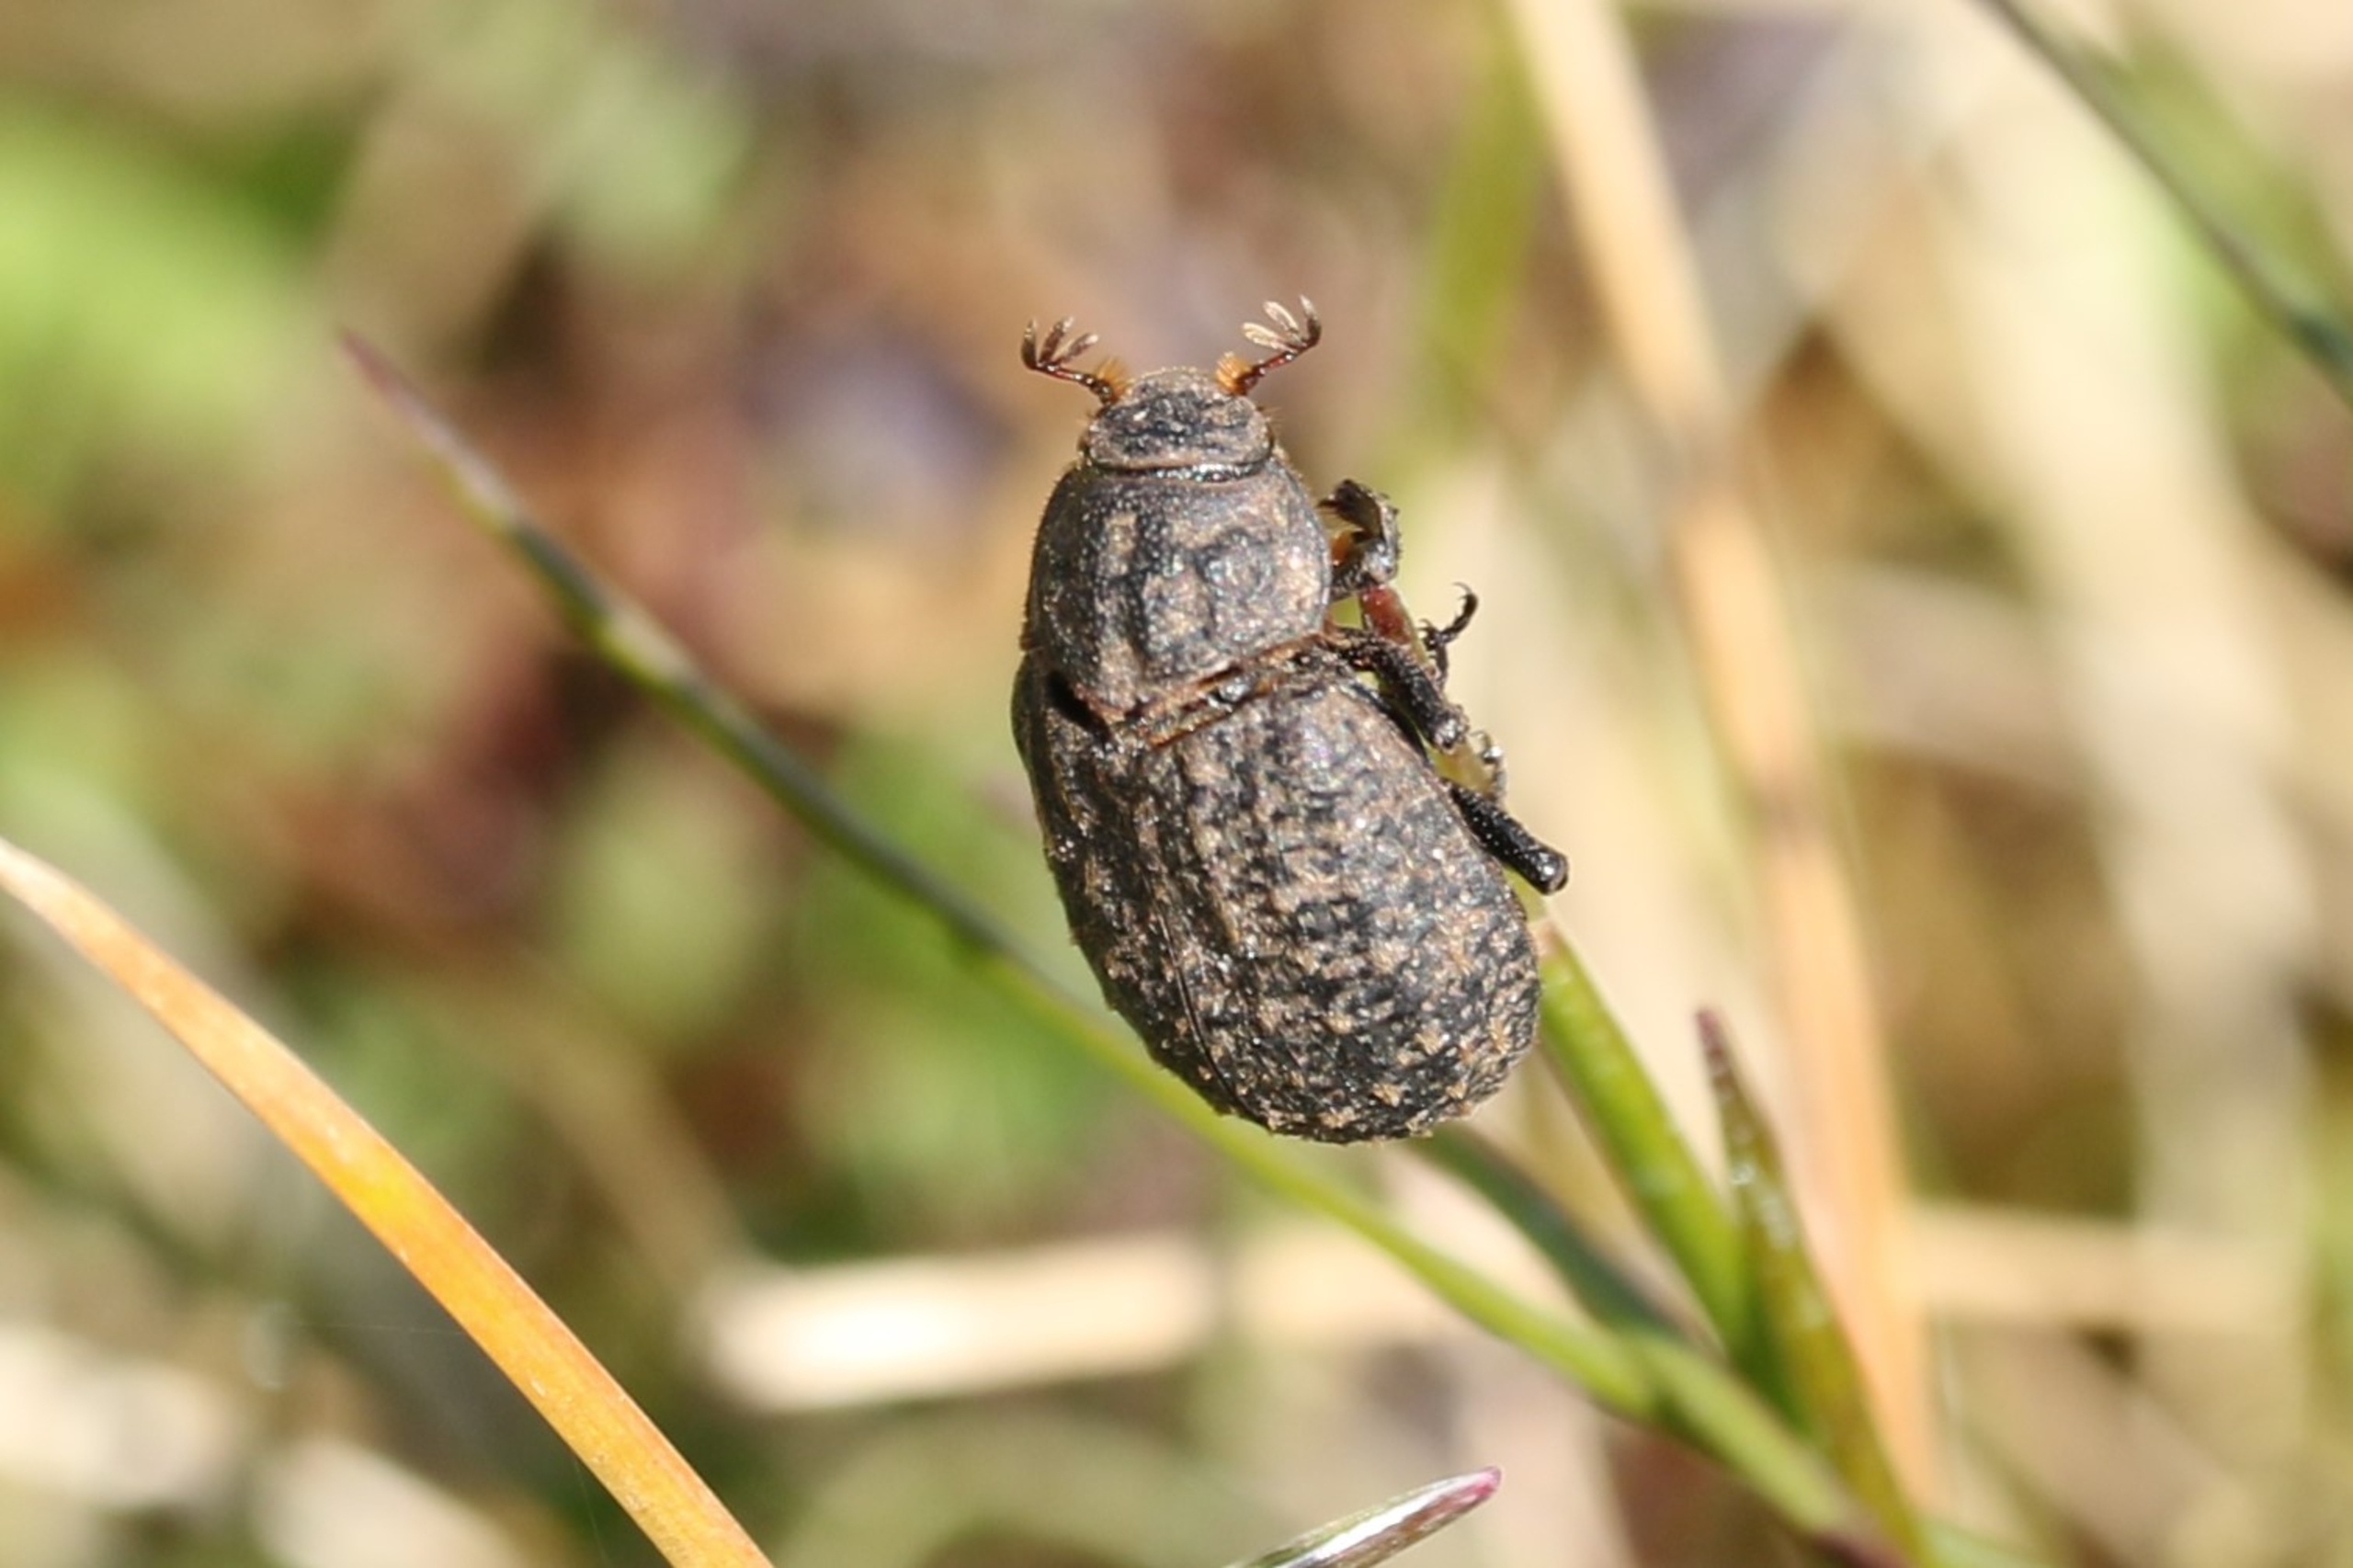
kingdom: Animalia
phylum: Arthropoda
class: Insecta
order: Coleoptera
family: Trogidae
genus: Trox
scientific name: Trox sabulosus
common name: Stor uldtorbist
